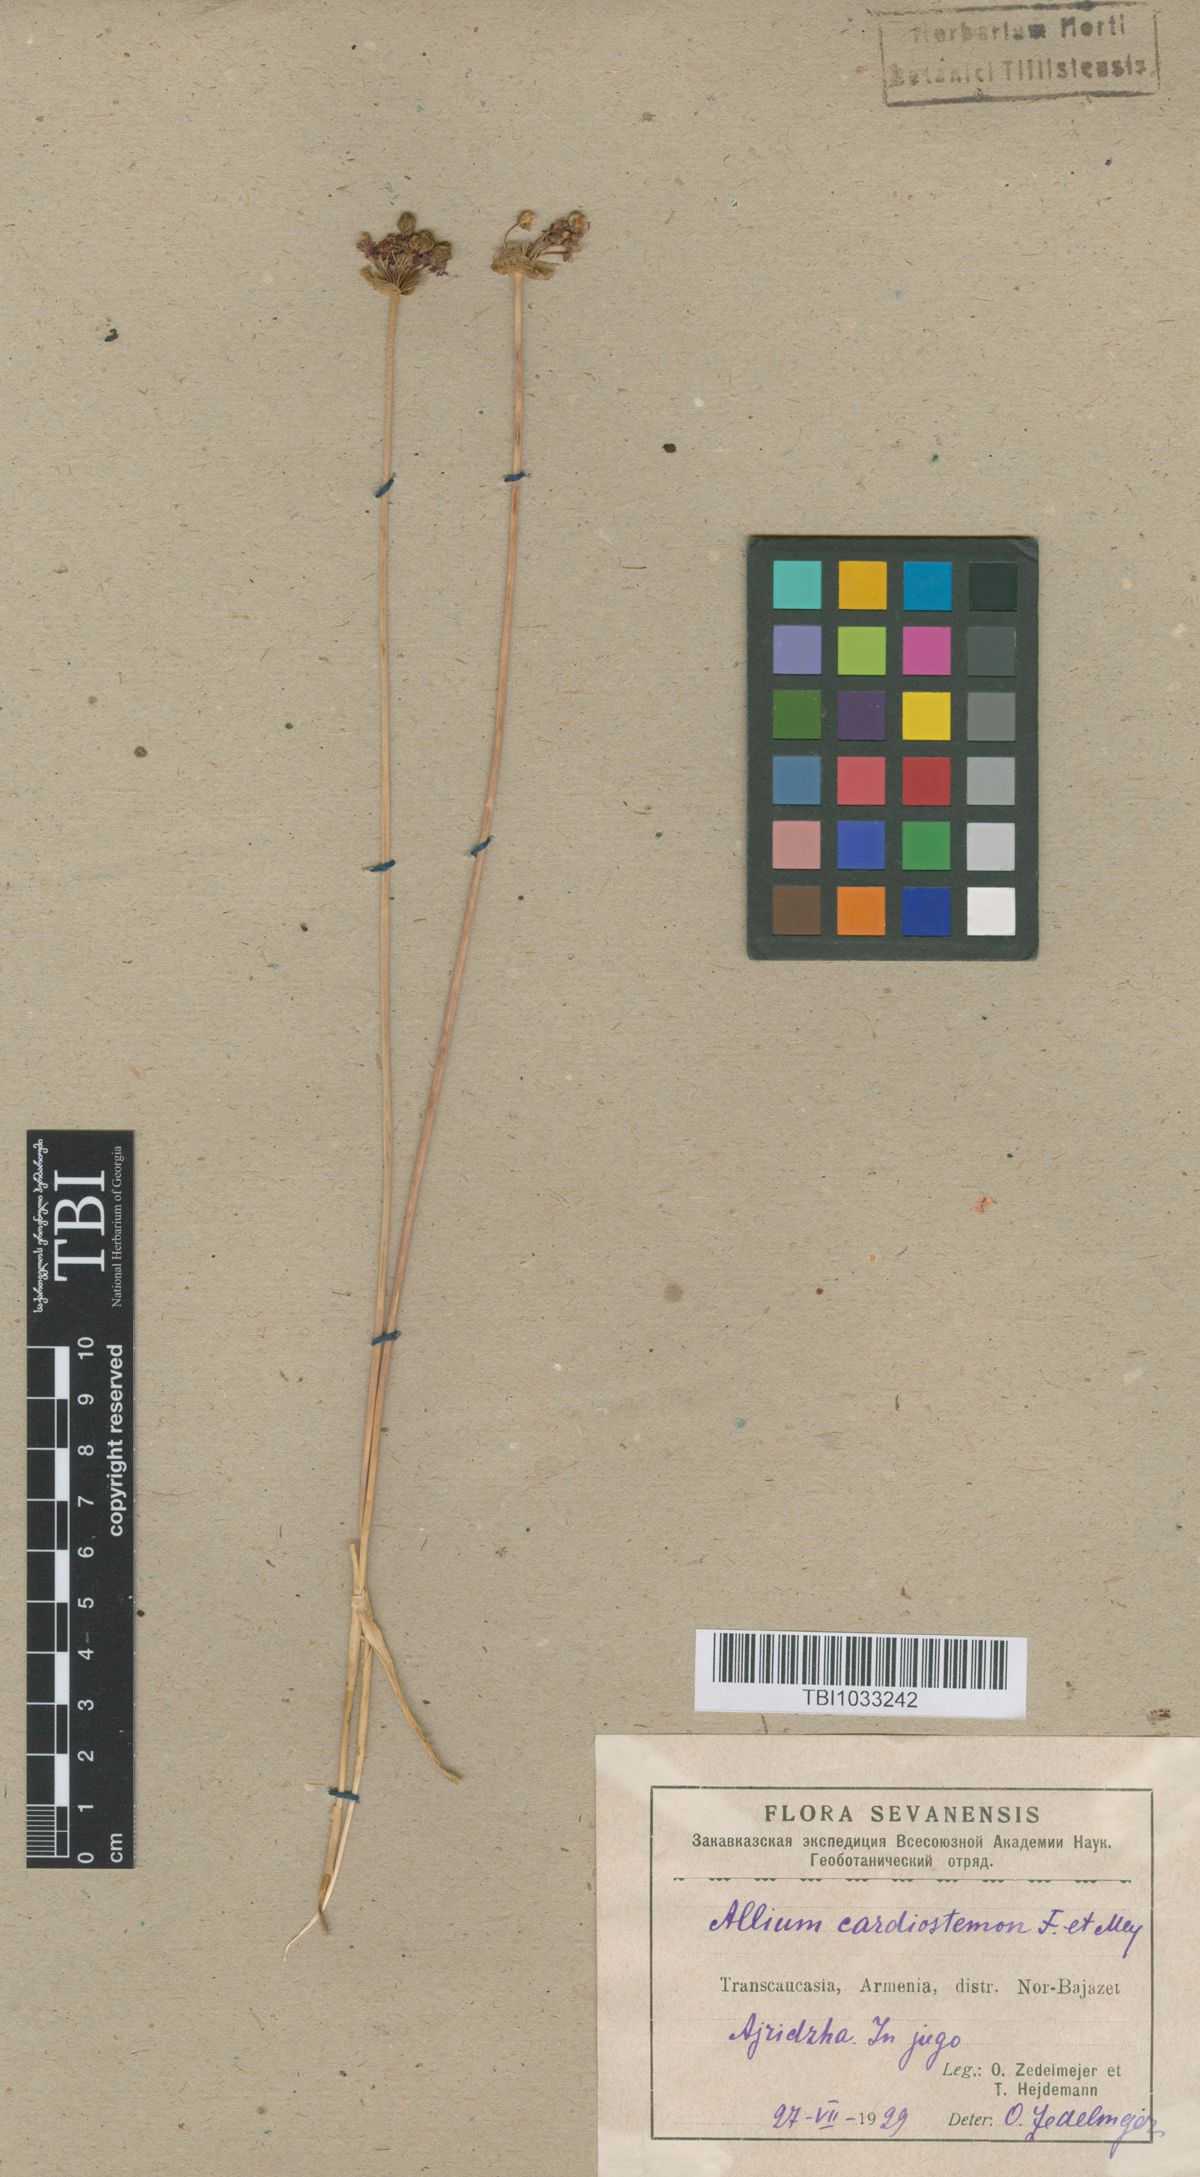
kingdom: Plantae
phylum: Tracheophyta
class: Liliopsida
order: Asparagales
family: Amaryllidaceae
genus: Allium
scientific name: Allium cardiostemon
